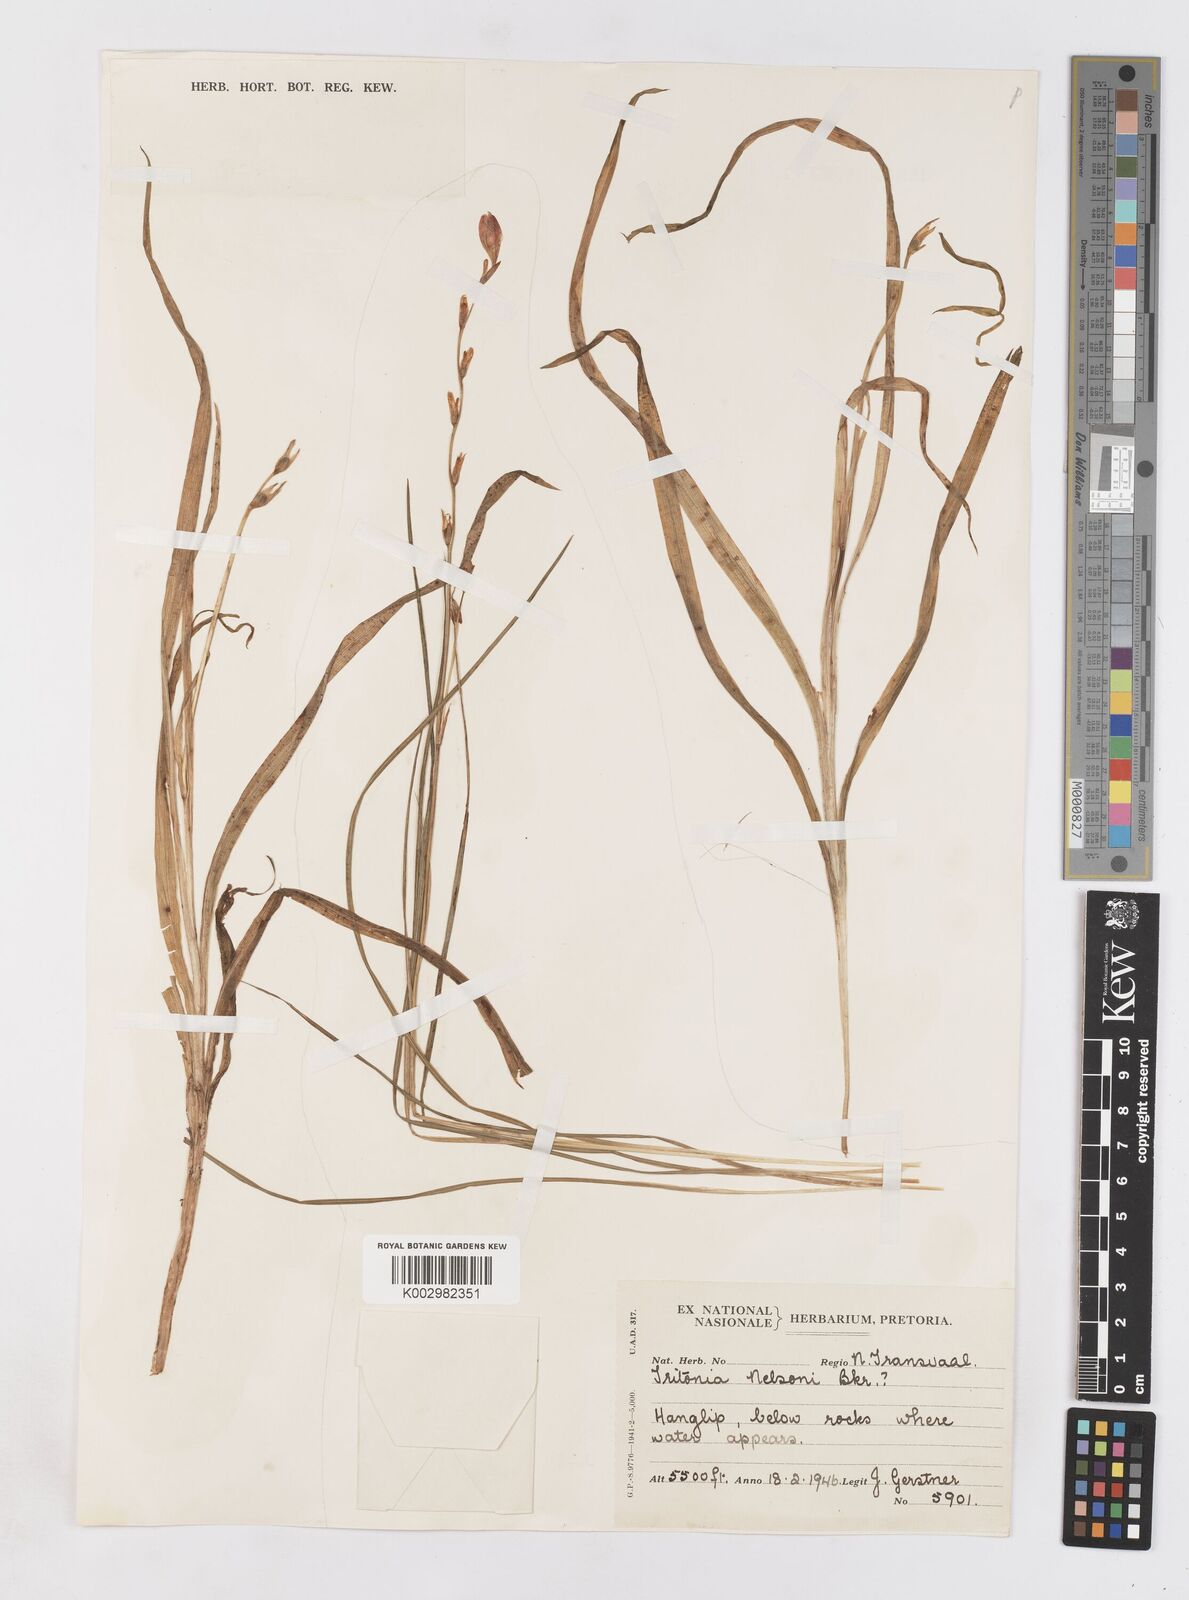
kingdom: Plantae
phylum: Tracheophyta
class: Liliopsida
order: Asparagales
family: Iridaceae
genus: Tritonia
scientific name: Tritonia nelsonii
